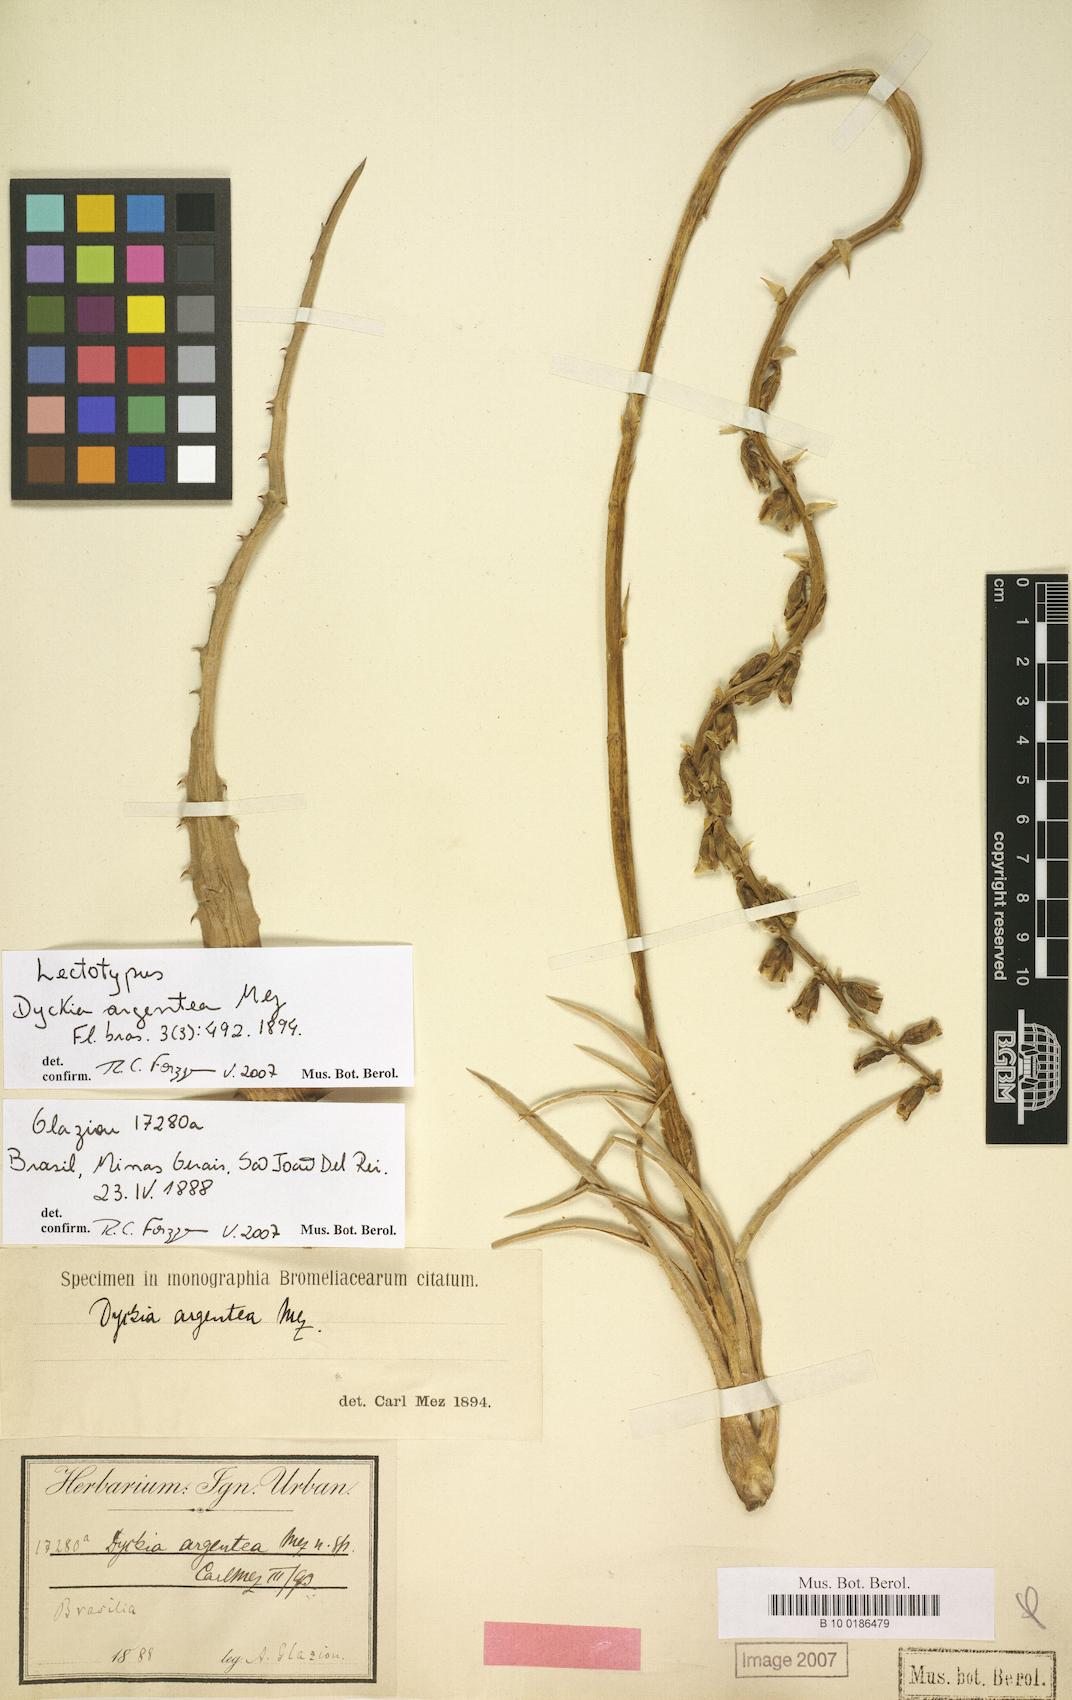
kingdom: Plantae
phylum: Tracheophyta
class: Liliopsida
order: Poales
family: Bromeliaceae
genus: Dyckia
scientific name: Dyckia mezii
